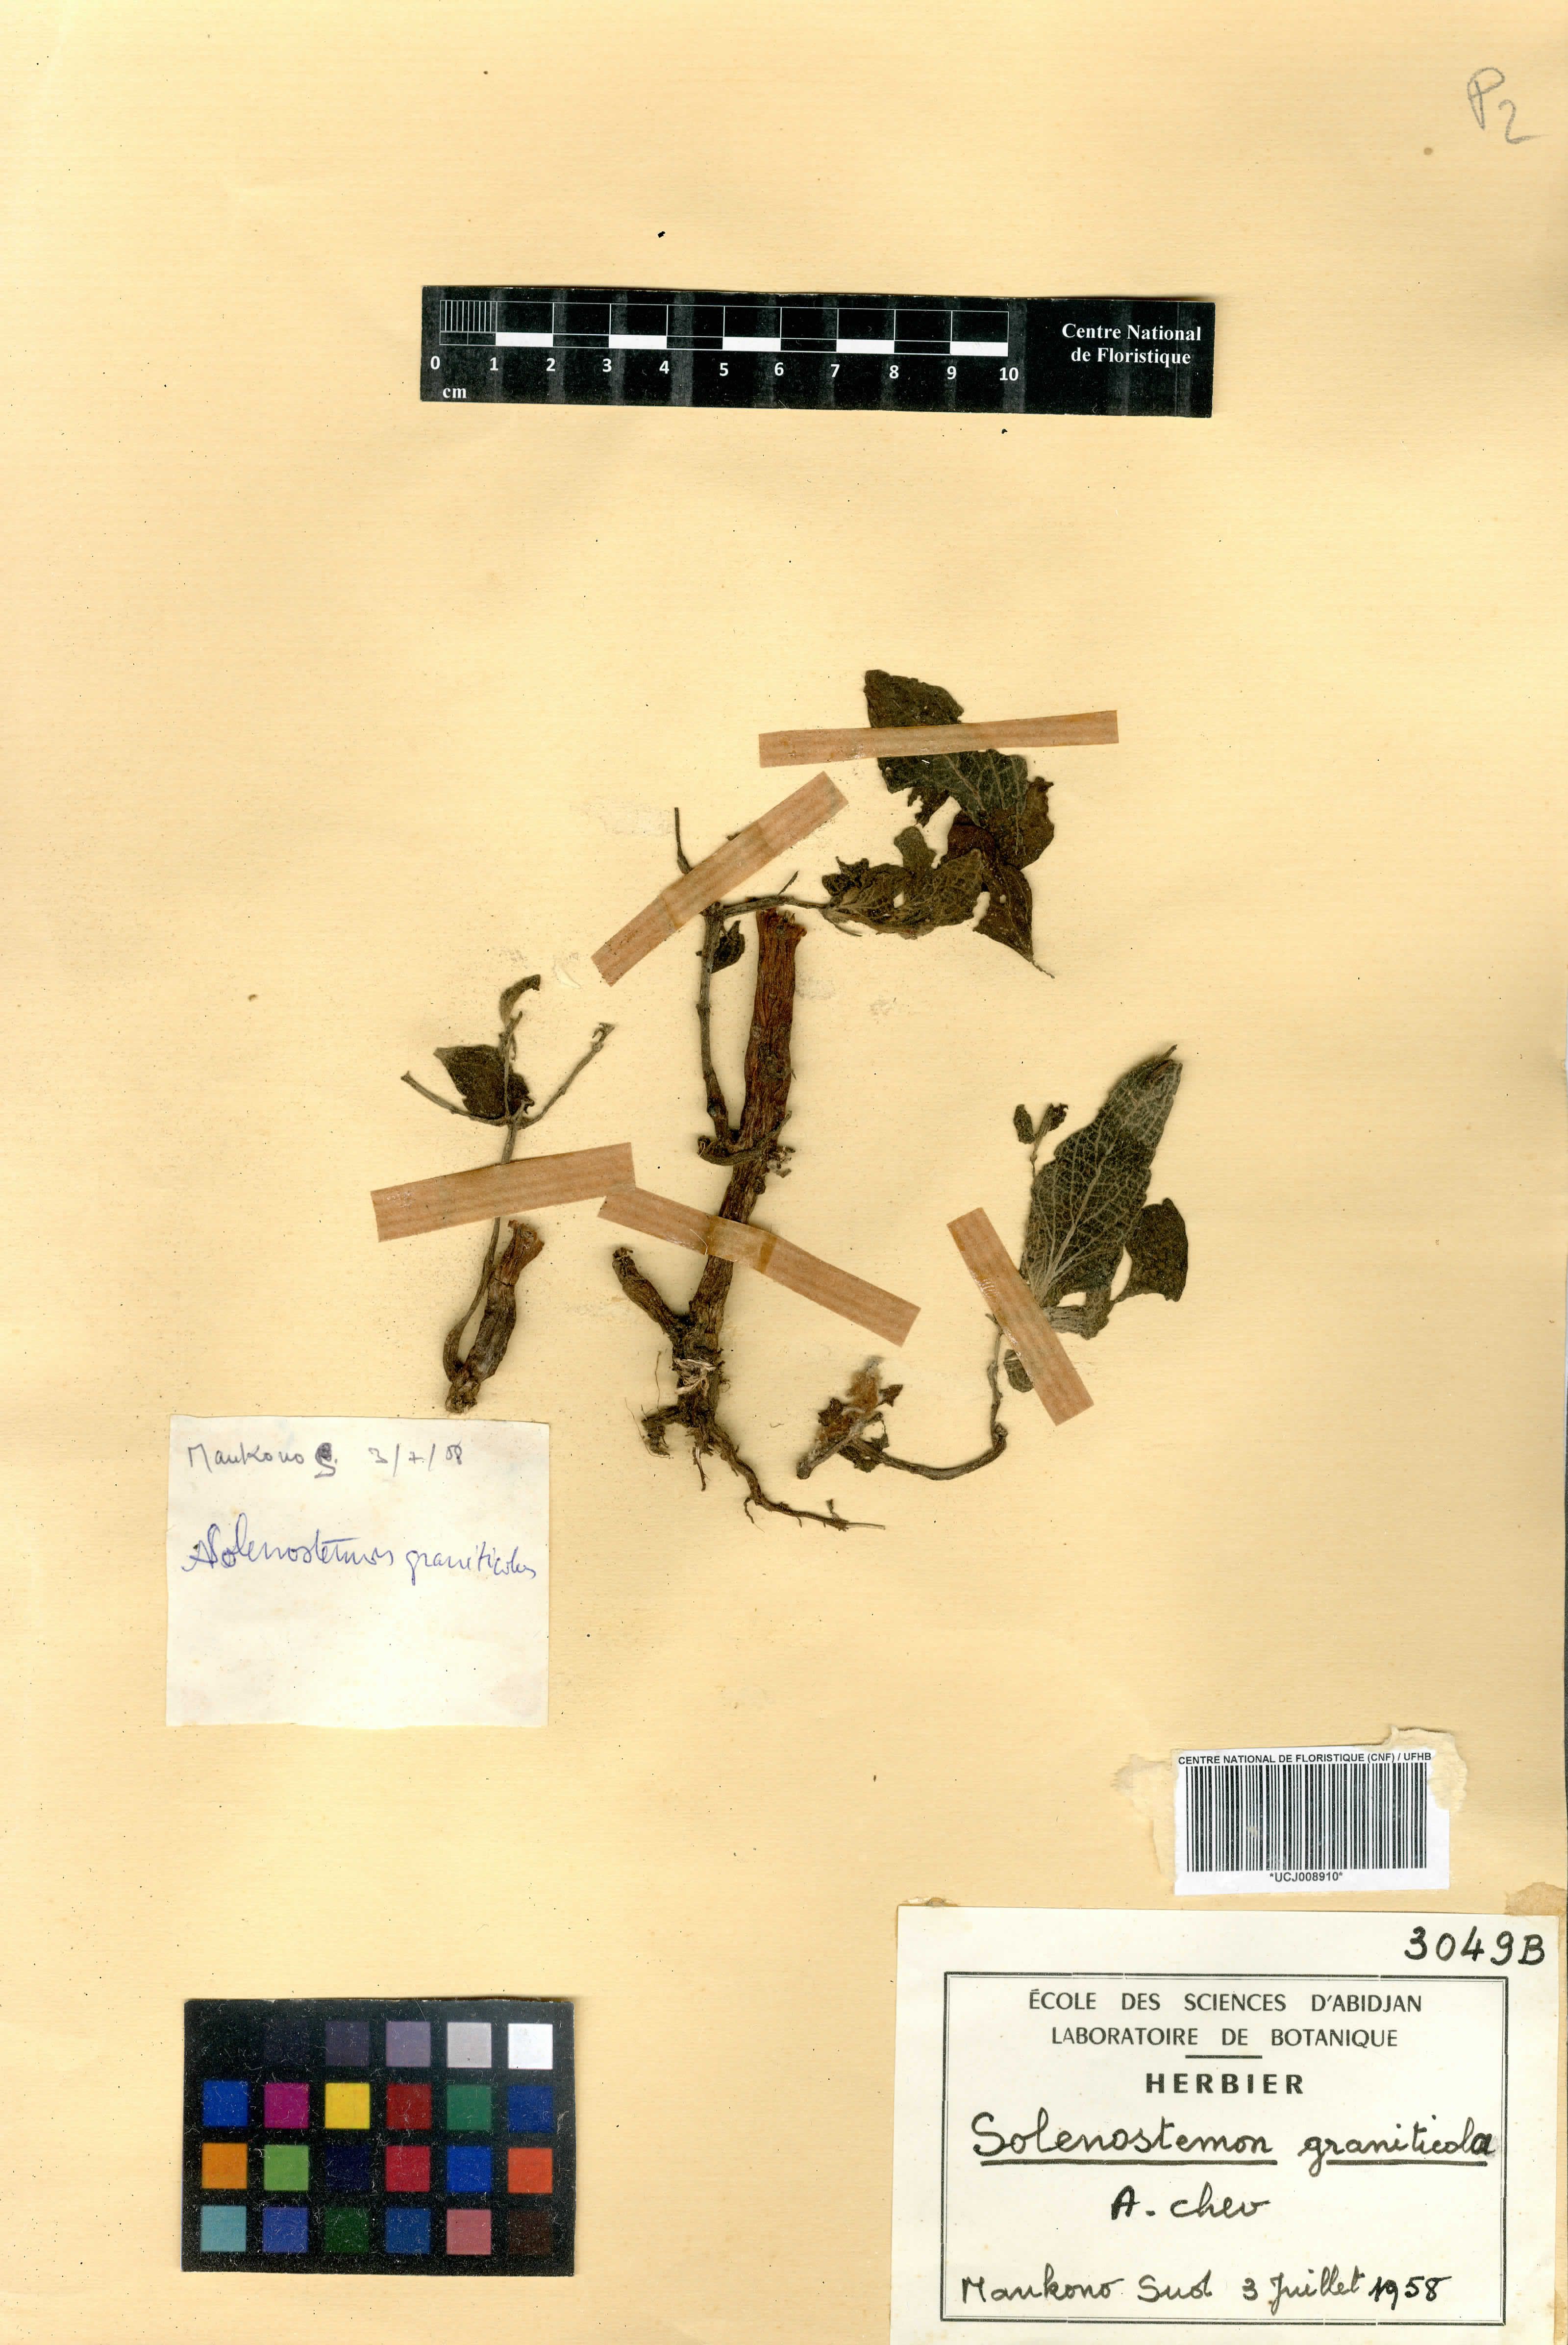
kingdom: Plantae
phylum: Tracheophyta
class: Magnoliopsida
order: Lamiales
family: Lamiaceae
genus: Coleus
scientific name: Coleus graniticola
